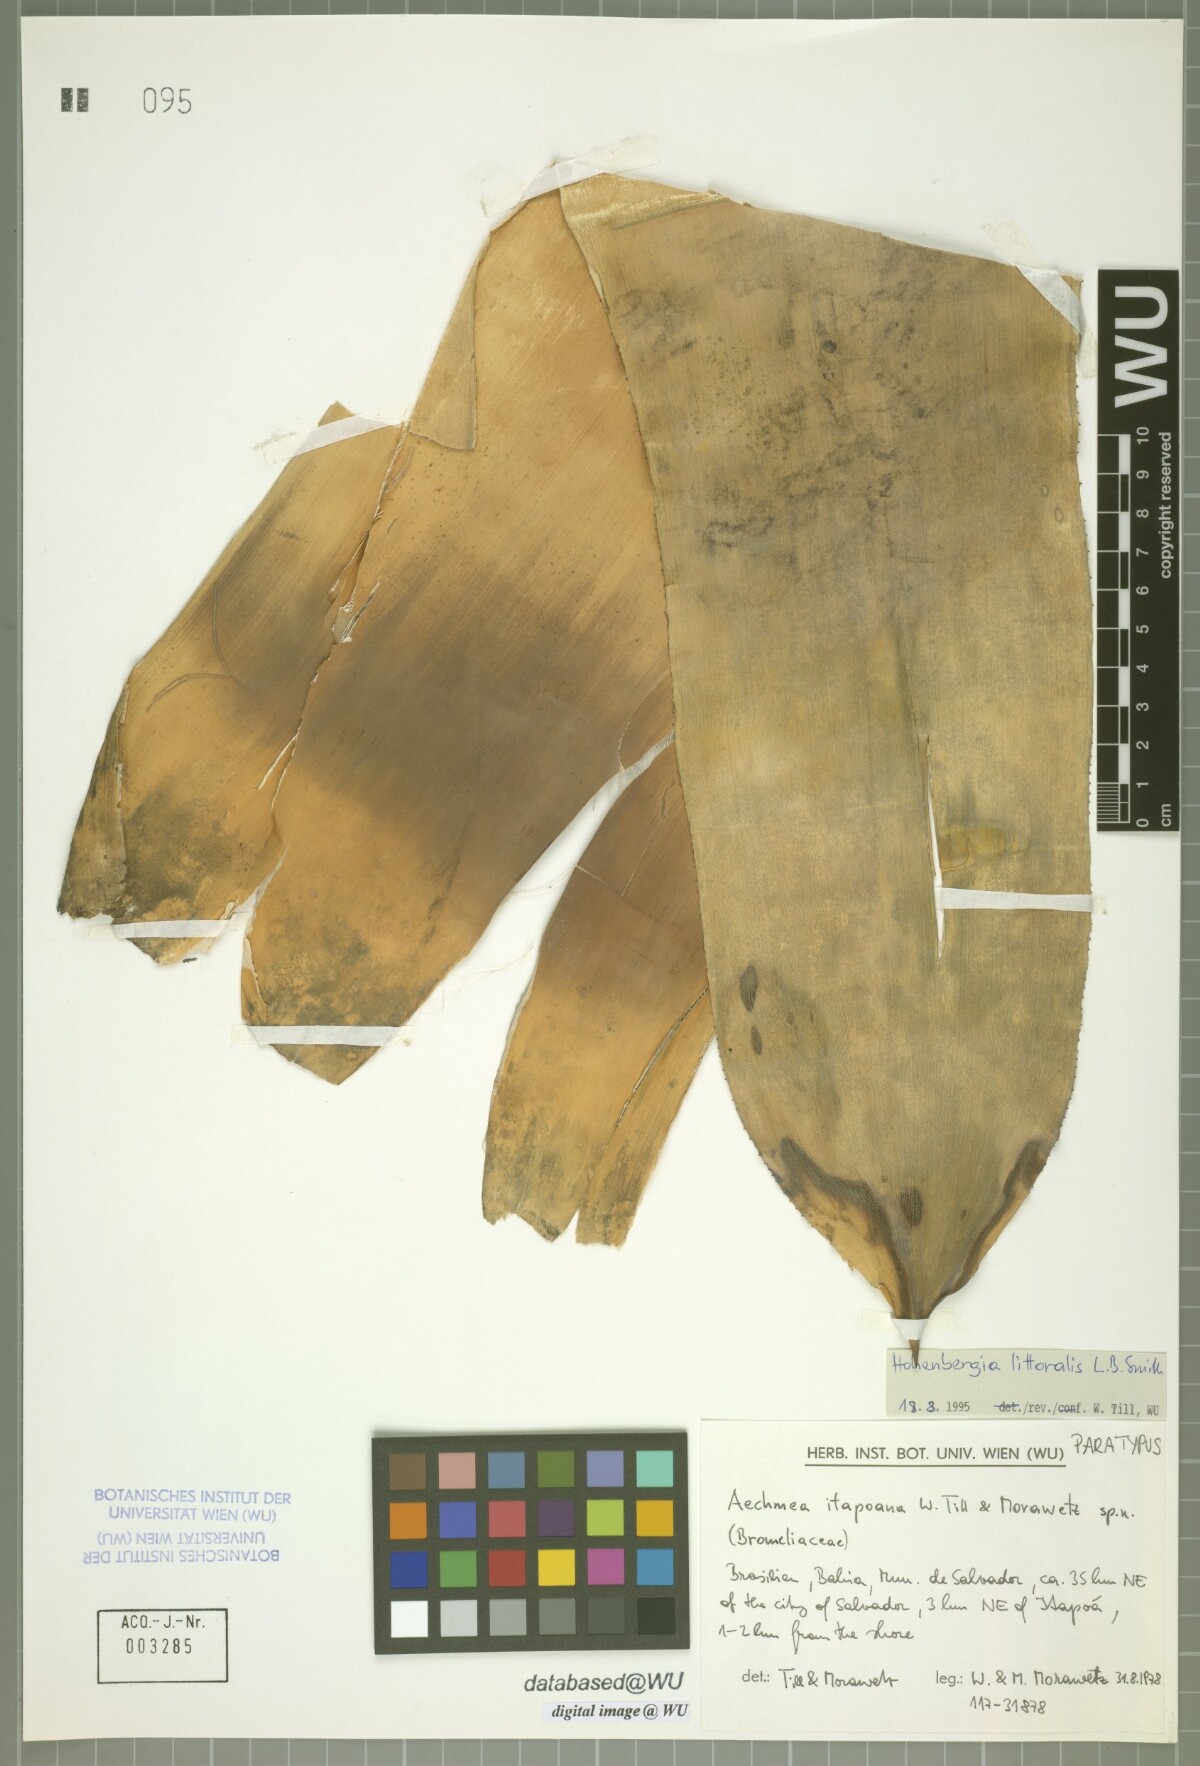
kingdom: Plantae
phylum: Tracheophyta
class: Liliopsida
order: Poales
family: Bromeliaceae
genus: Aechmea
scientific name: Aechmea itapoana
